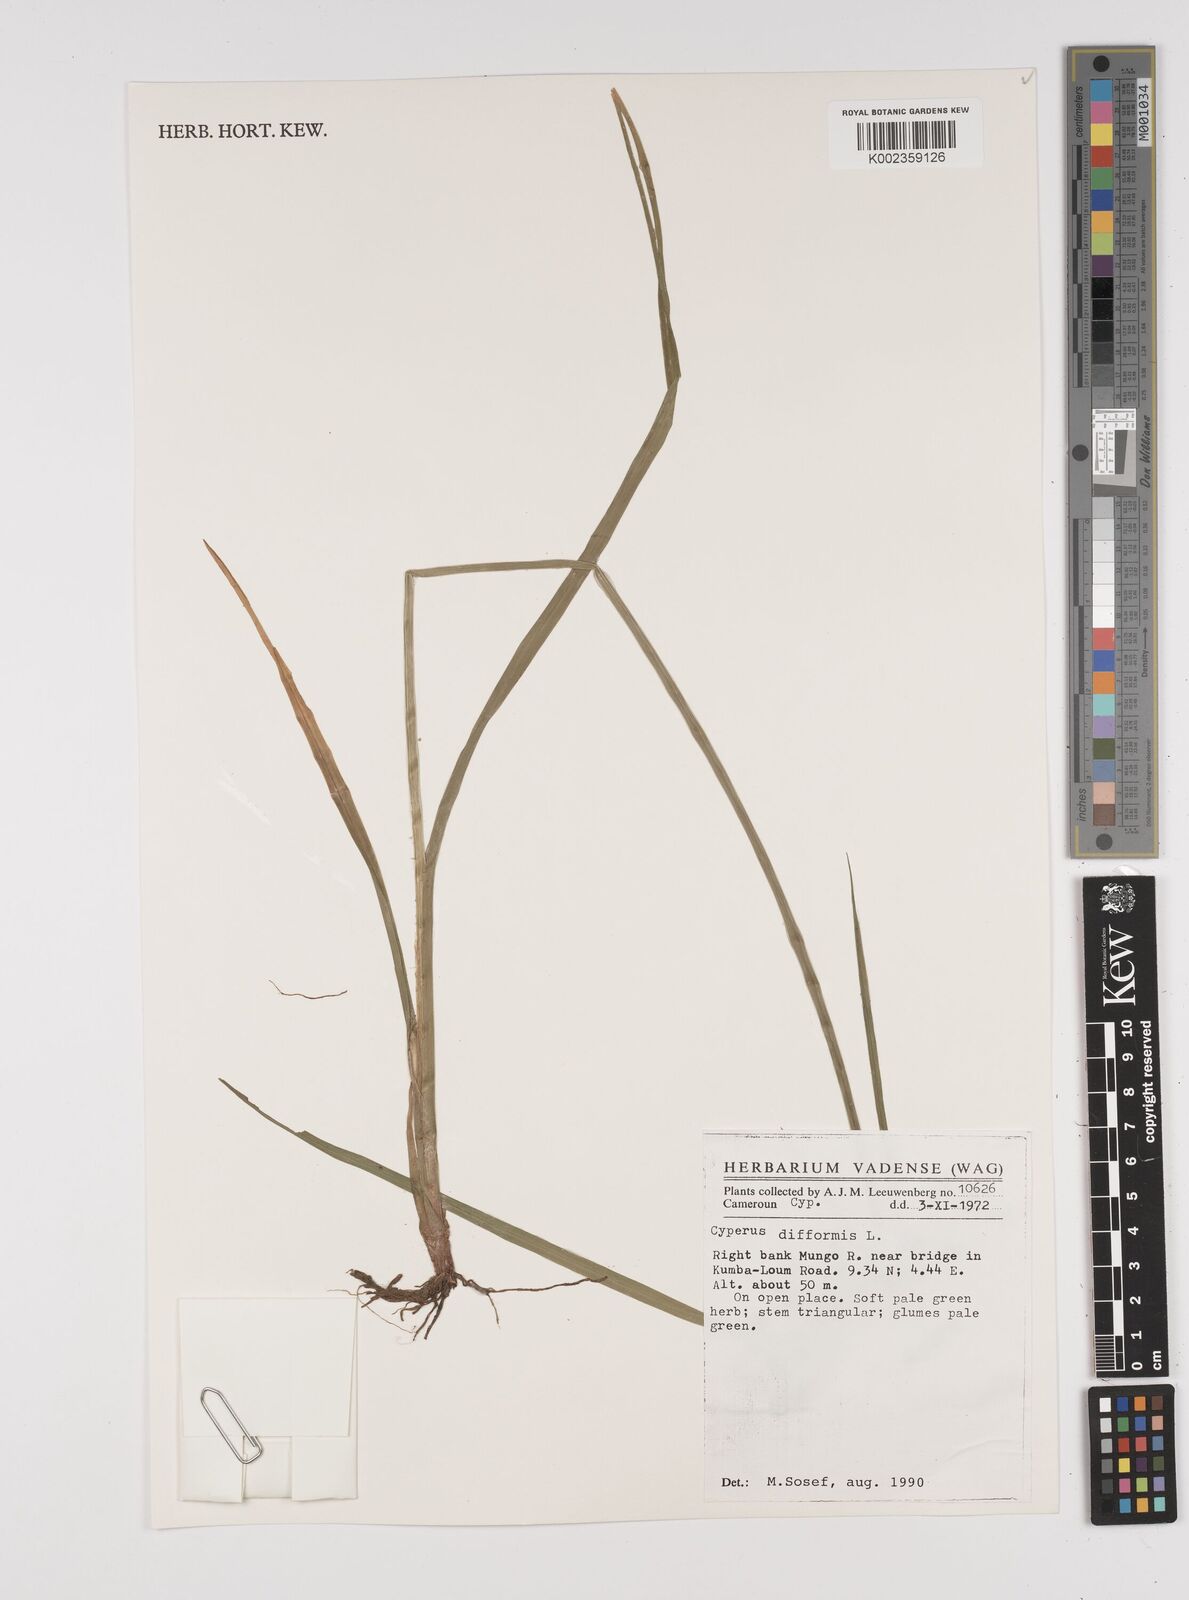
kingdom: Plantae
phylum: Tracheophyta
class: Liliopsida
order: Poales
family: Cyperaceae
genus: Cyperus
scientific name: Cyperus difformis
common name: Variable flatsedge
